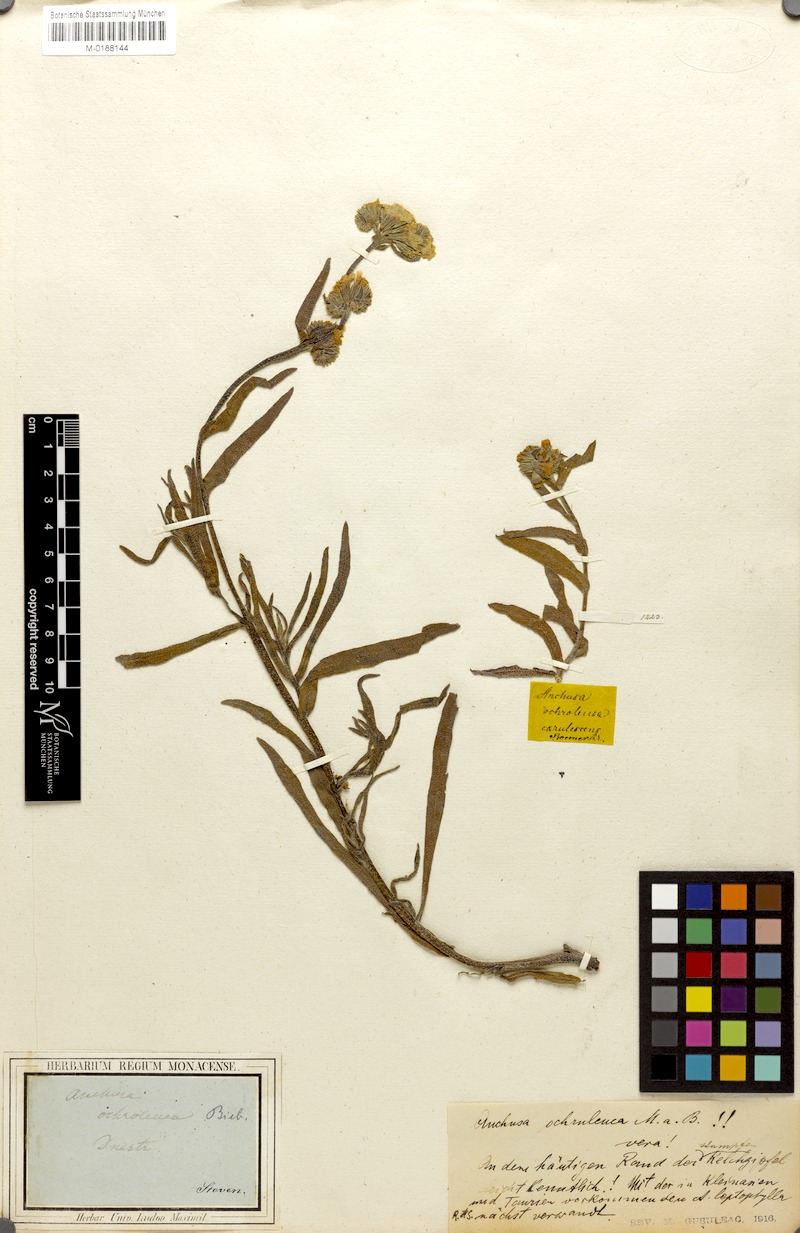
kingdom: Plantae
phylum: Tracheophyta
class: Magnoliopsida
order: Boraginales
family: Boraginaceae
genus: Anchusa
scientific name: Anchusa ochroleuca
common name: Yellow alkanet
